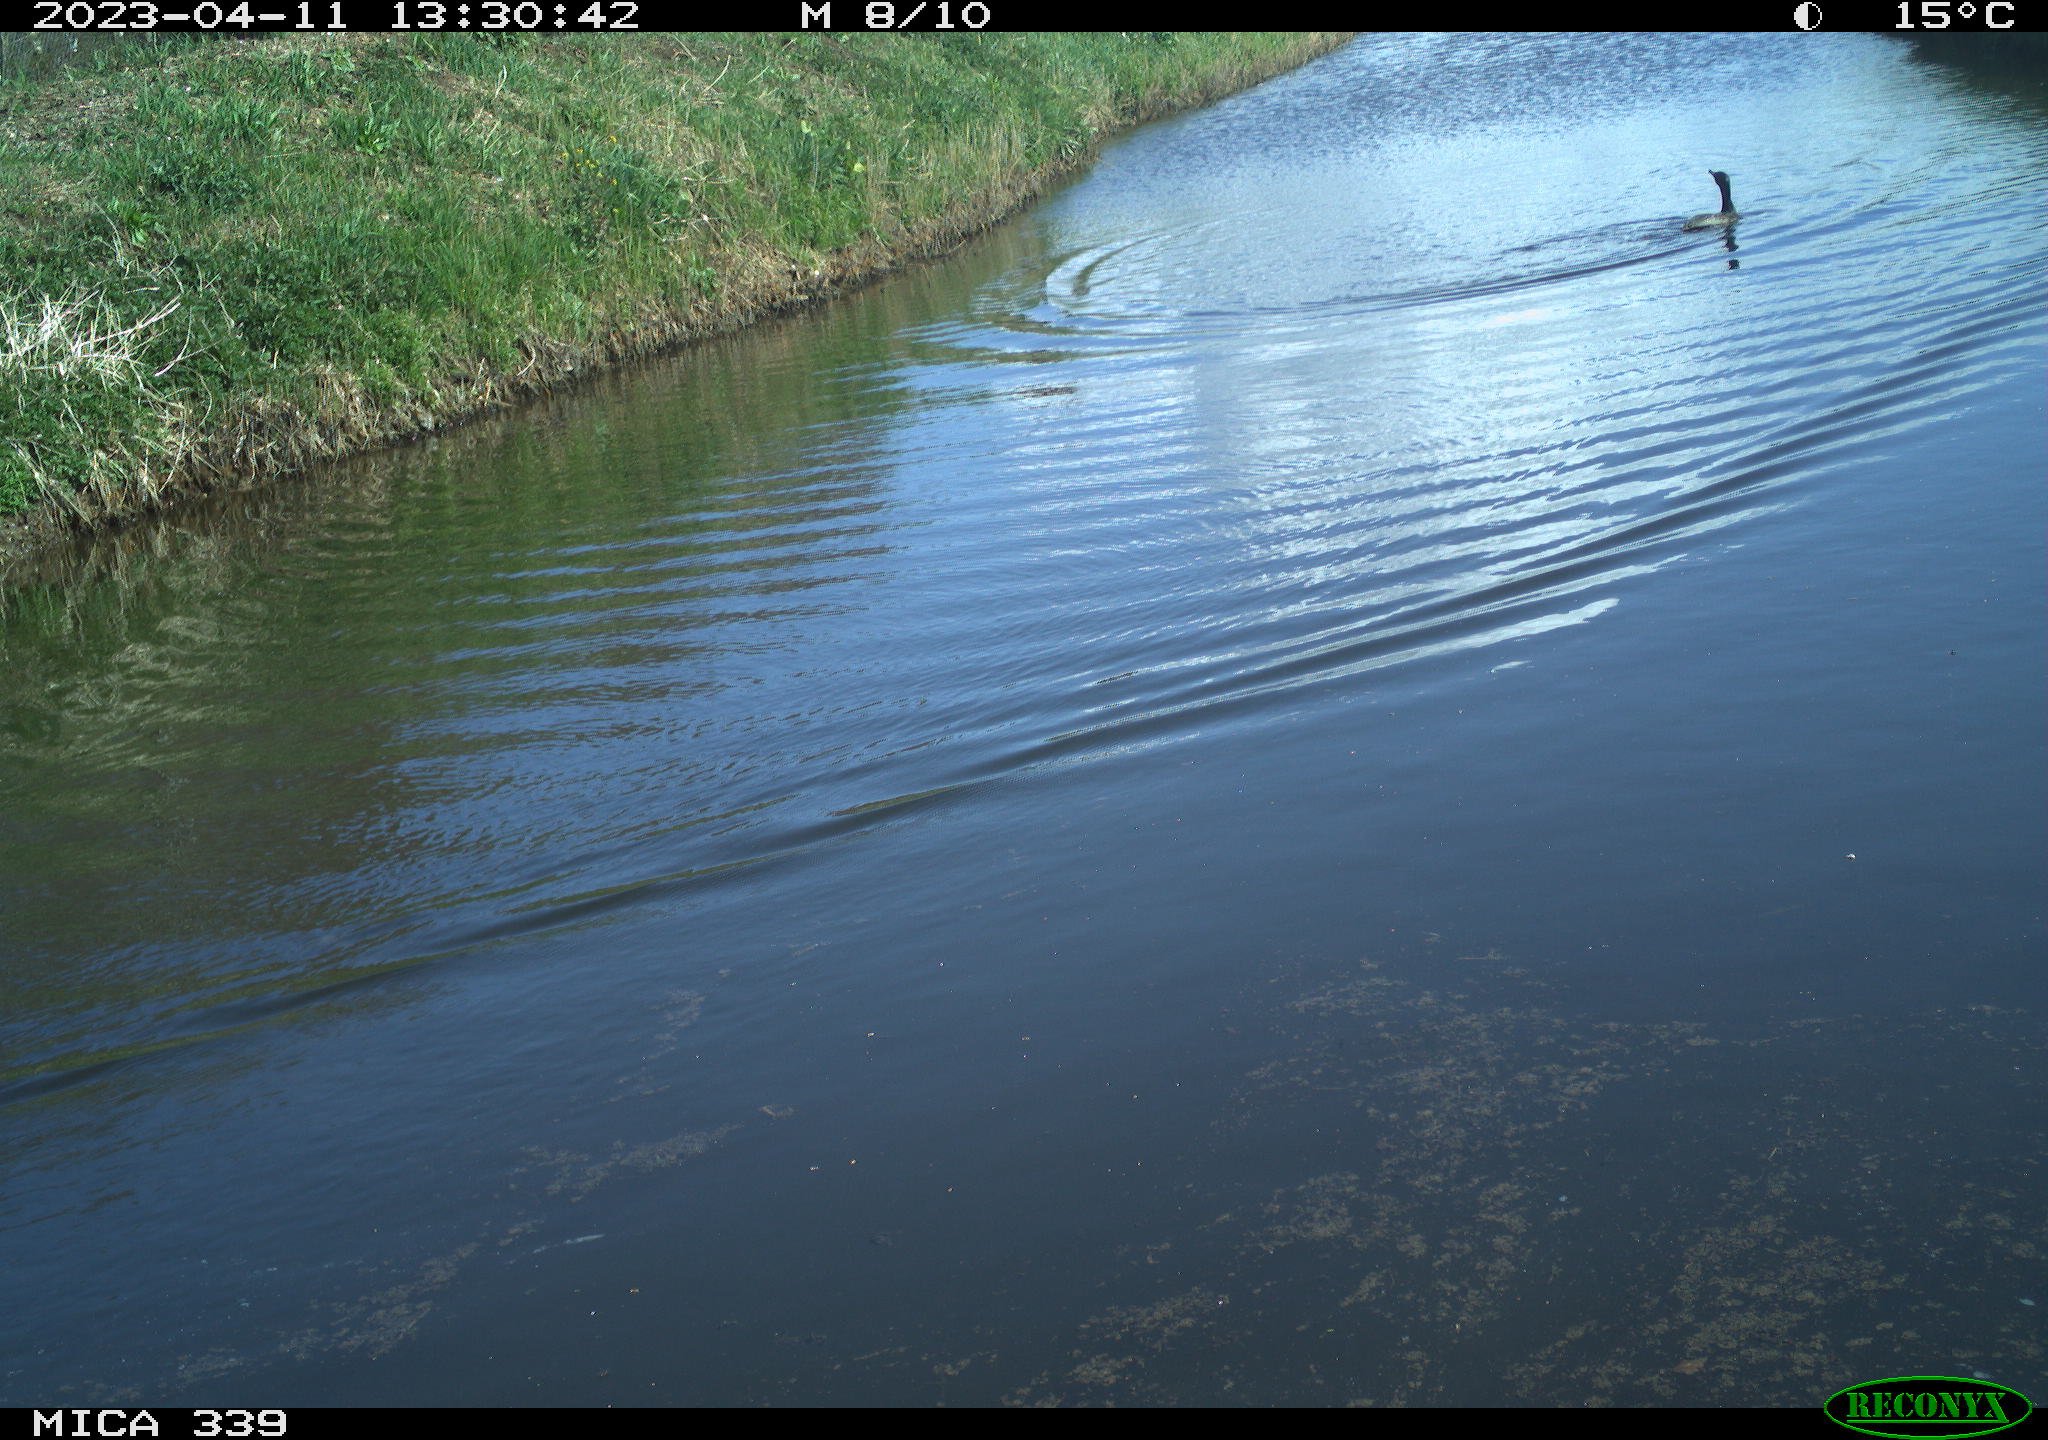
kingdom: Animalia
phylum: Chordata
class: Aves
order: Anseriformes
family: Anatidae
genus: Anas
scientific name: Anas platyrhynchos
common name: Mallard
